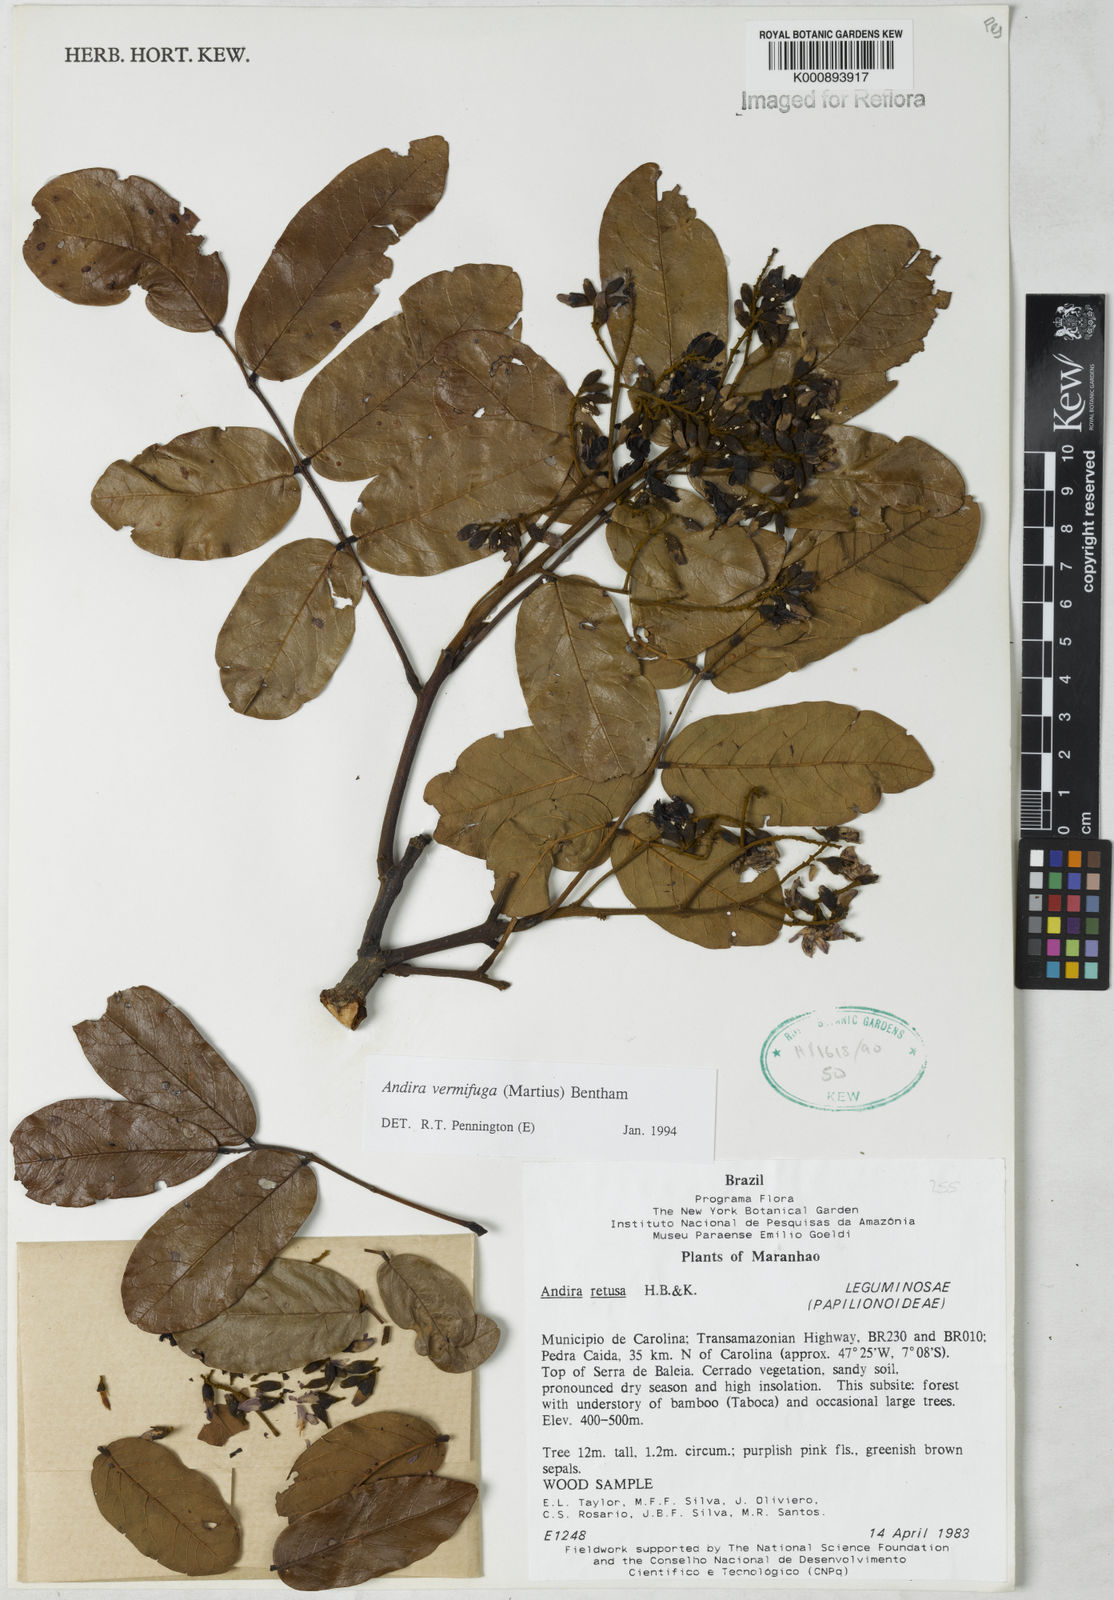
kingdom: Plantae
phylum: Tracheophyta
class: Magnoliopsida
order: Fabales
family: Fabaceae
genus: Andira
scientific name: Andira vermifuga
